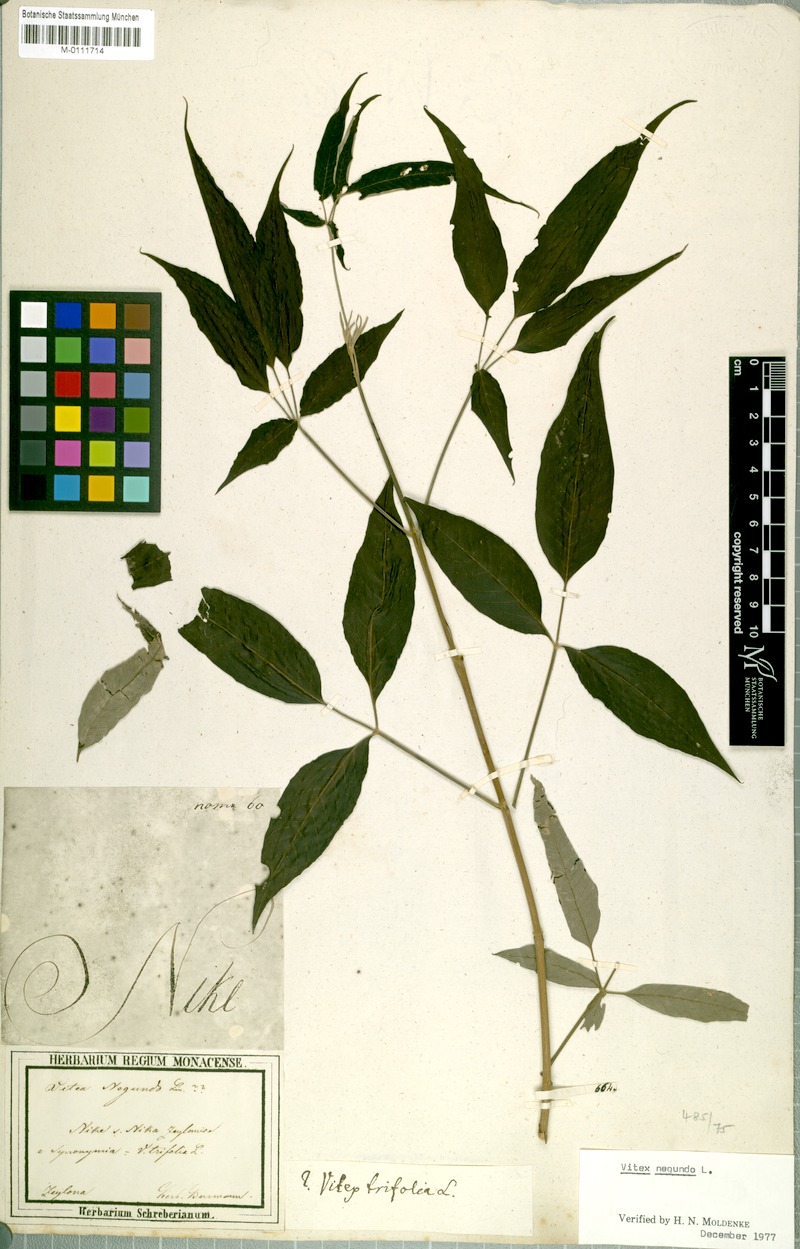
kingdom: Plantae
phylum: Tracheophyta
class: Magnoliopsida
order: Lamiales
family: Lamiaceae
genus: Vitex
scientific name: Vitex negundo
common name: Chinese chastetree
